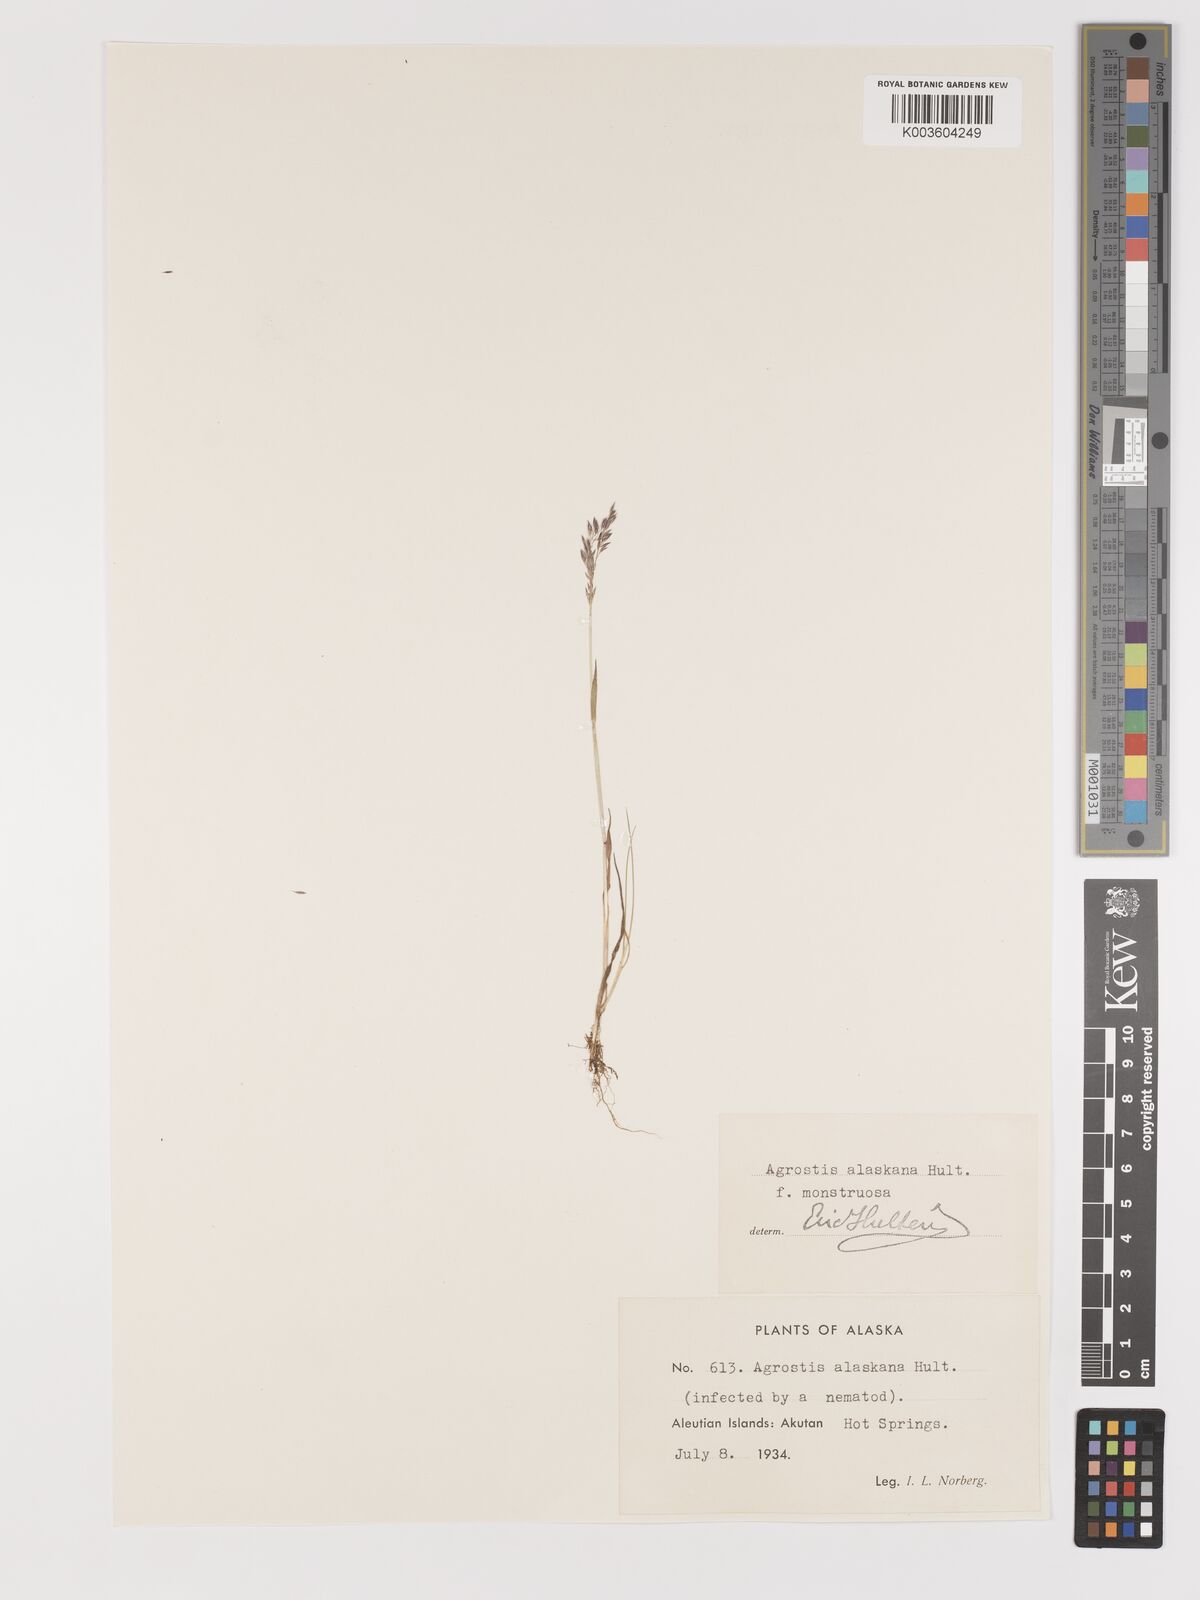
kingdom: Plantae
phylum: Tracheophyta
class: Liliopsida
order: Poales
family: Poaceae
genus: Agrostis
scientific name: Agrostis exarata
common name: Spike bent
